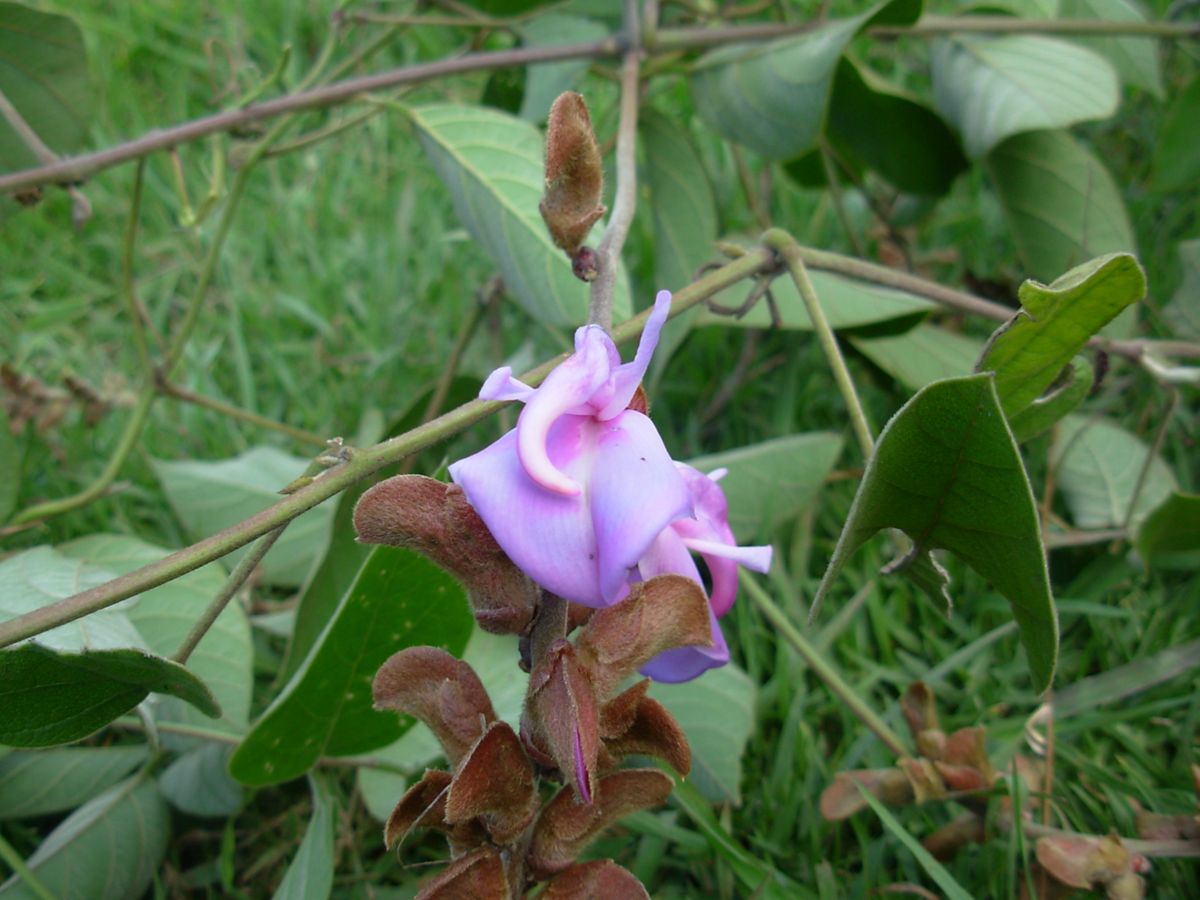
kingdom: Plantae
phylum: Tracheophyta
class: Magnoliopsida
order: Fabales
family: Fabaceae
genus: Canavalia
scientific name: Canavalia villosa
